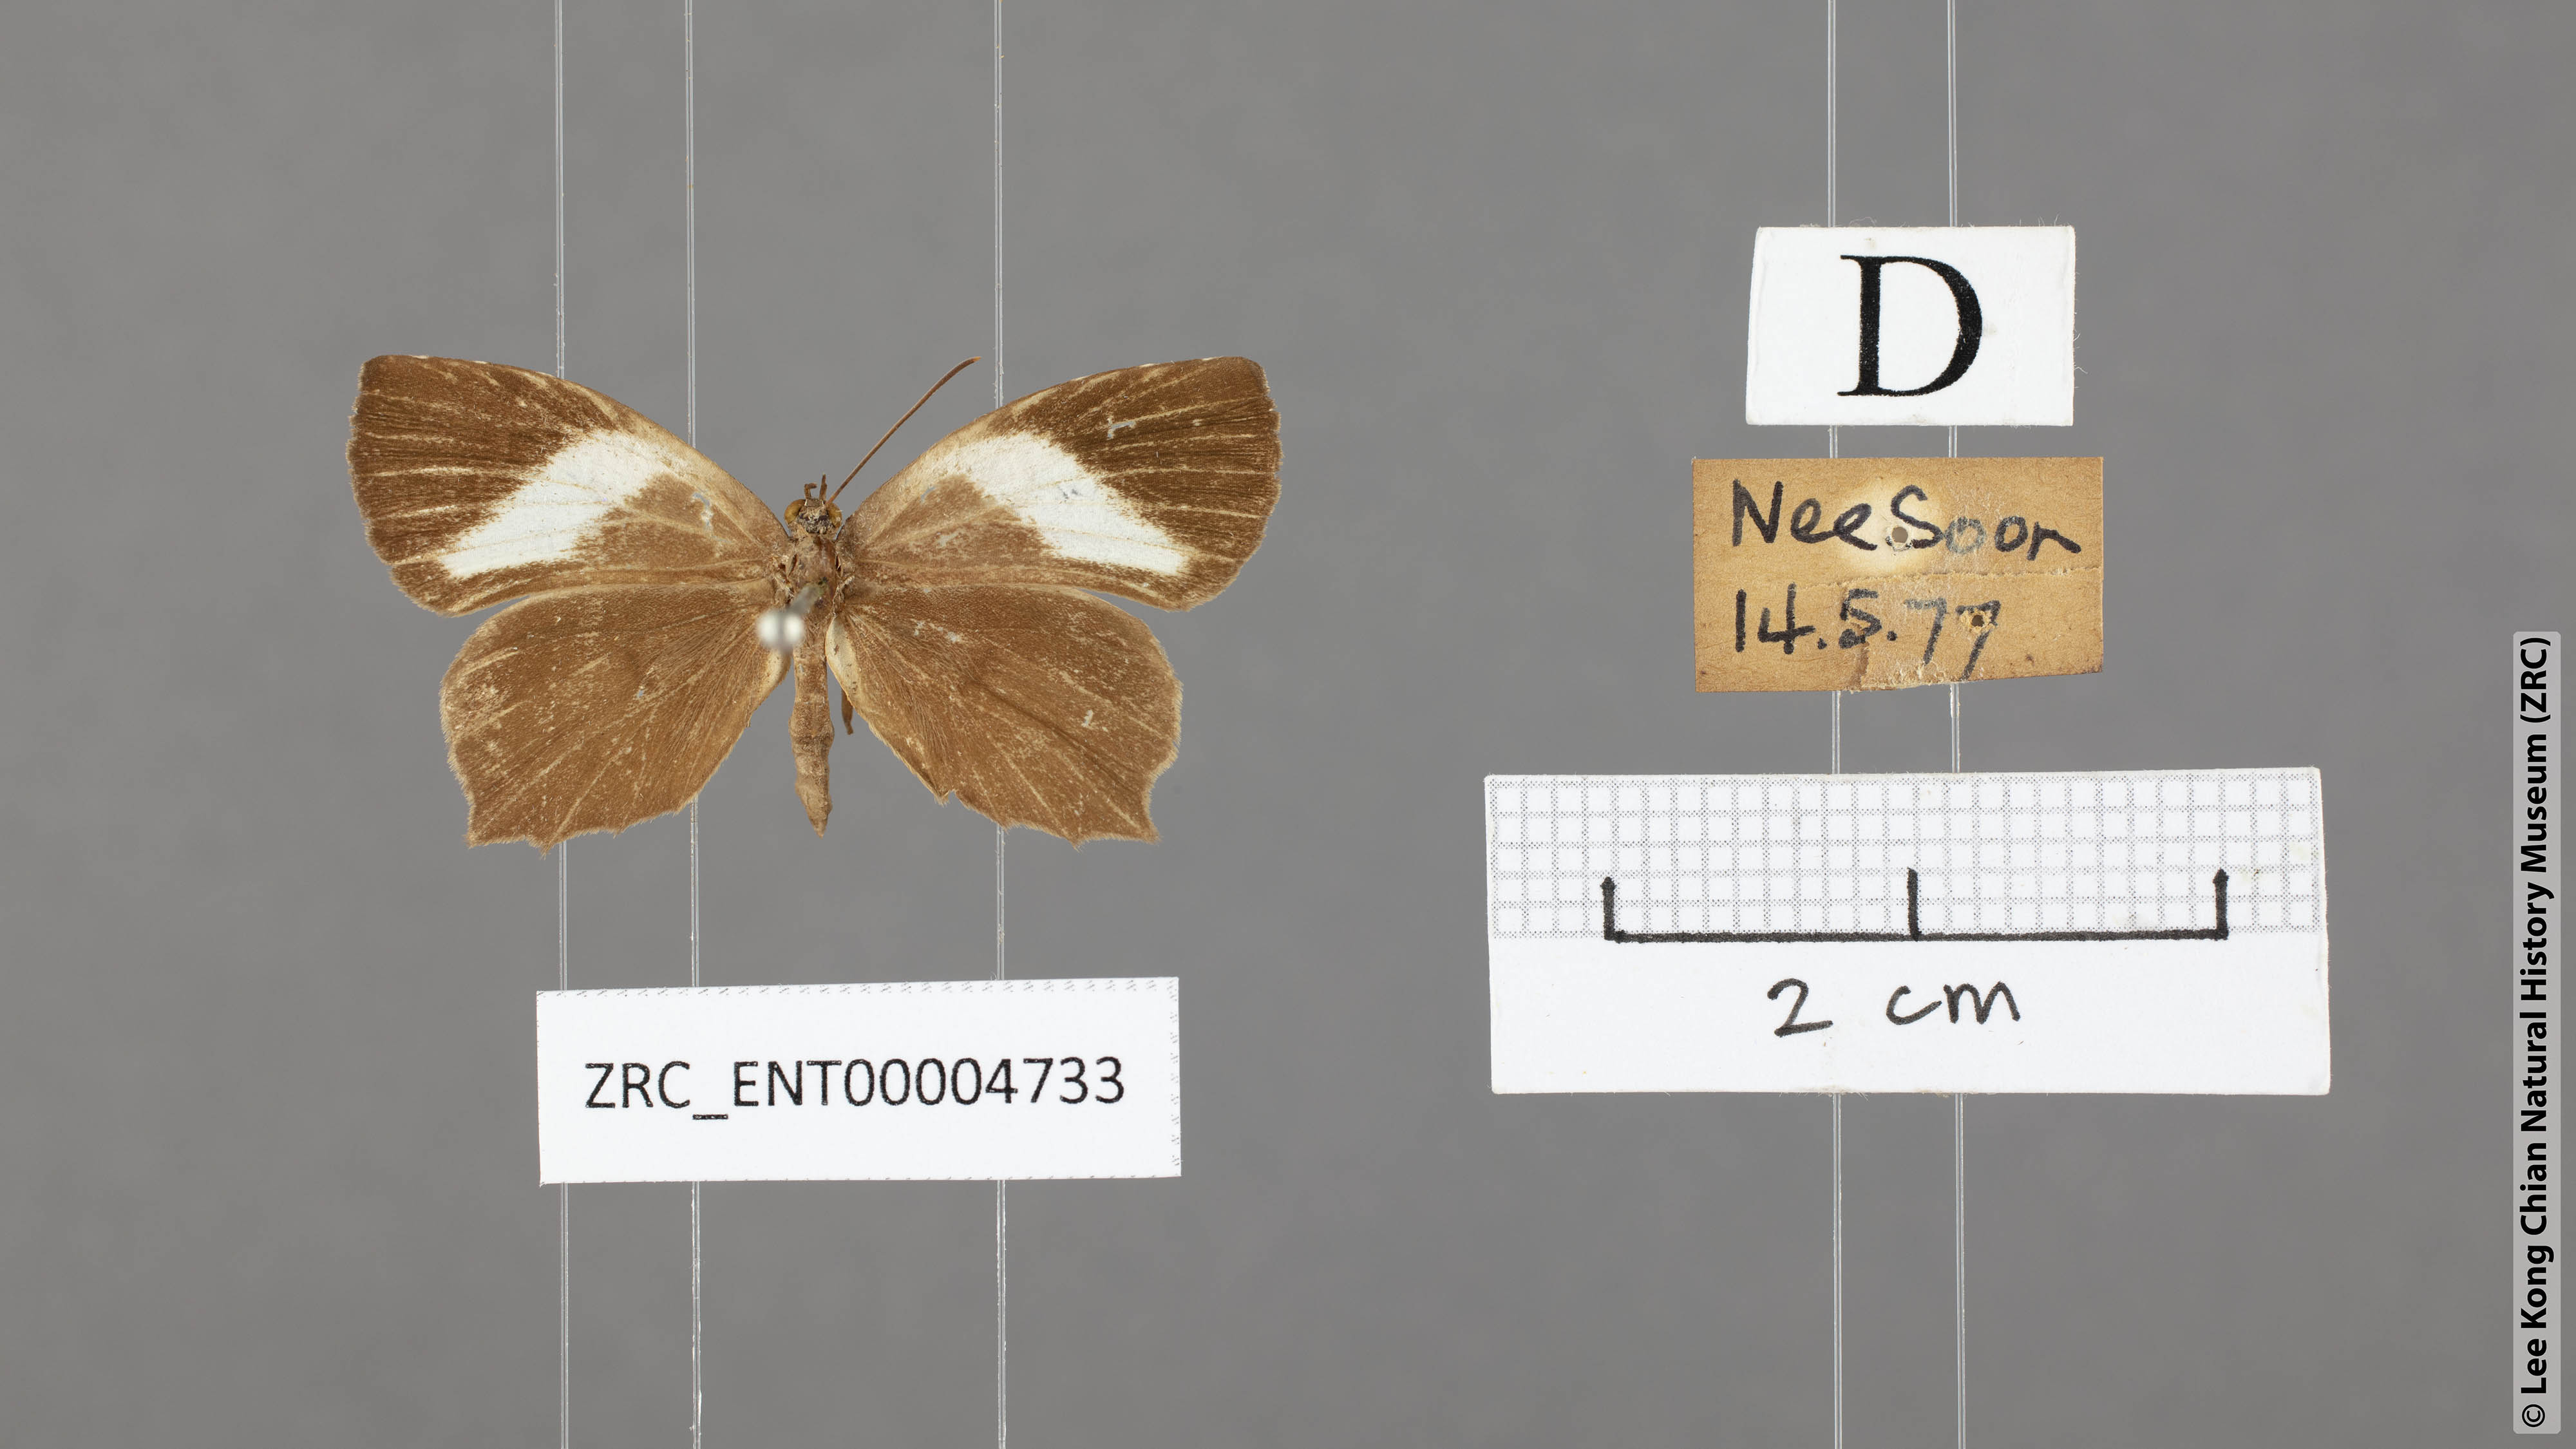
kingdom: Animalia
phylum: Arthropoda
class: Insecta
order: Lepidoptera
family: Lycaenidae
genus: Miletus
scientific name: Miletus gopara
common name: Round-banded brownie
